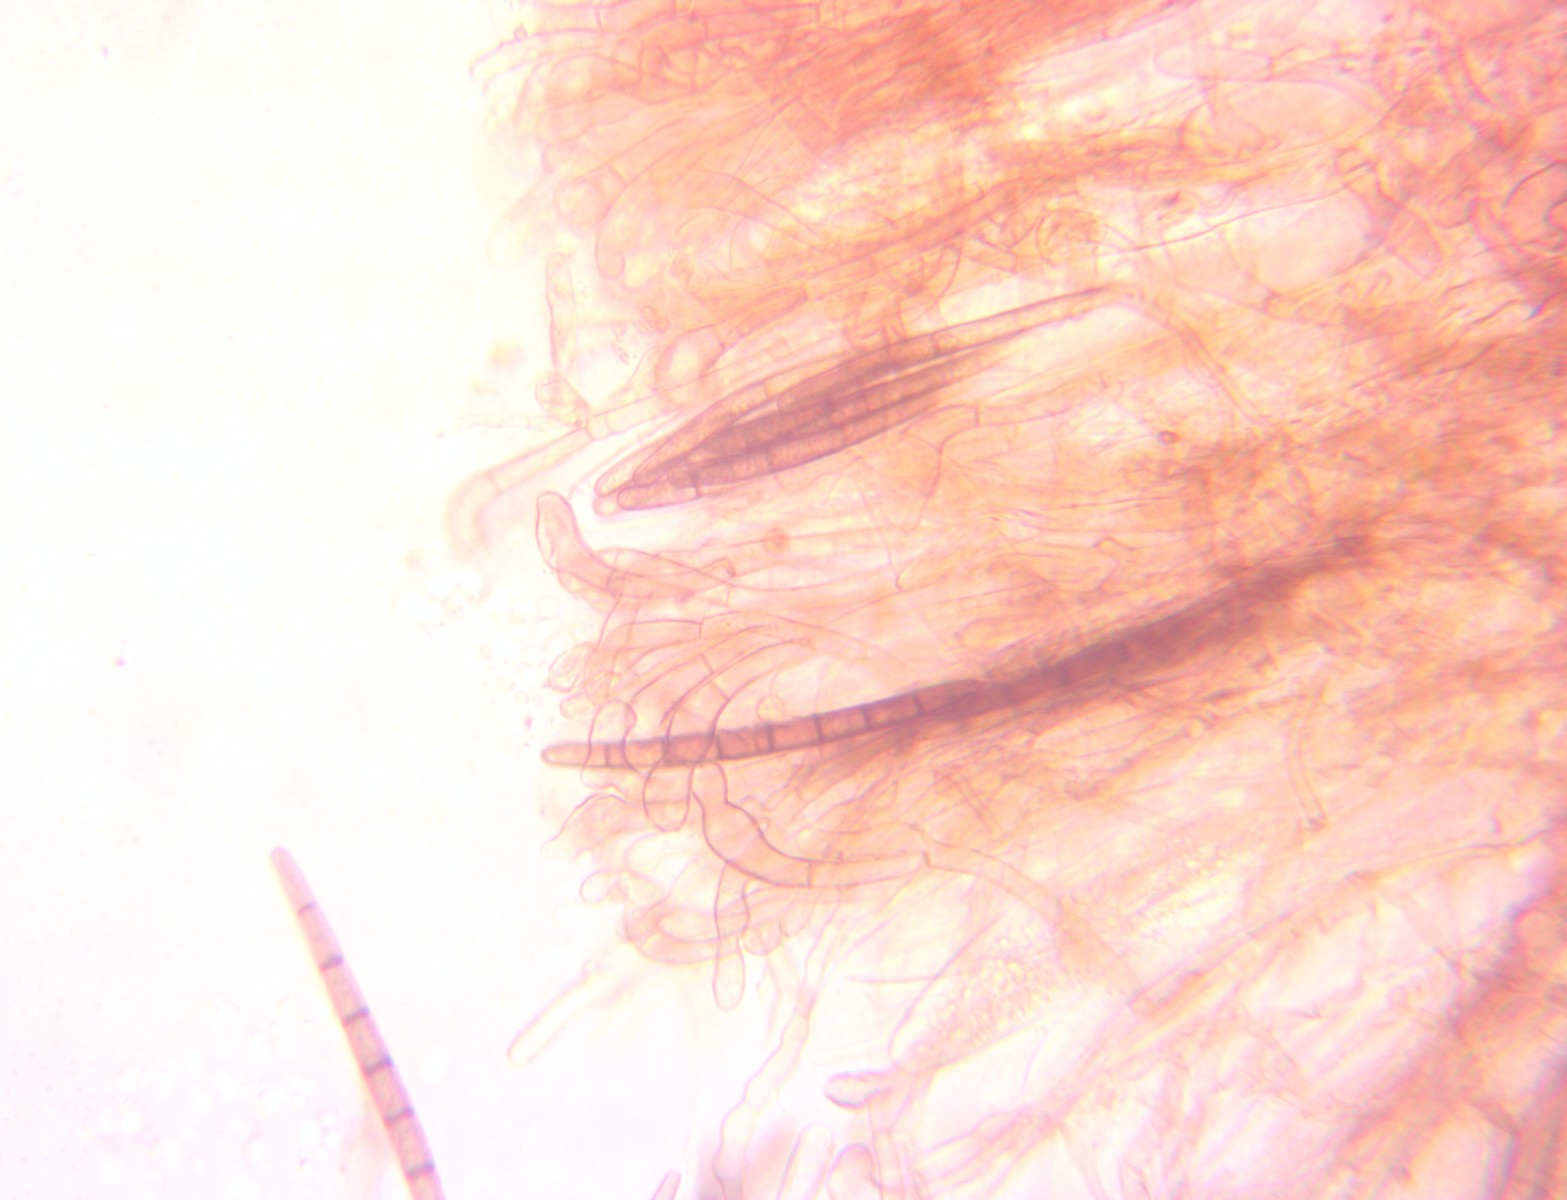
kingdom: Fungi
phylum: Ascomycota
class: Geoglossomycetes
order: Geoglossales
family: Geoglossaceae
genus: Geoglossum
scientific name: Geoglossum starbaeckii
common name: nordlig jordtunge
